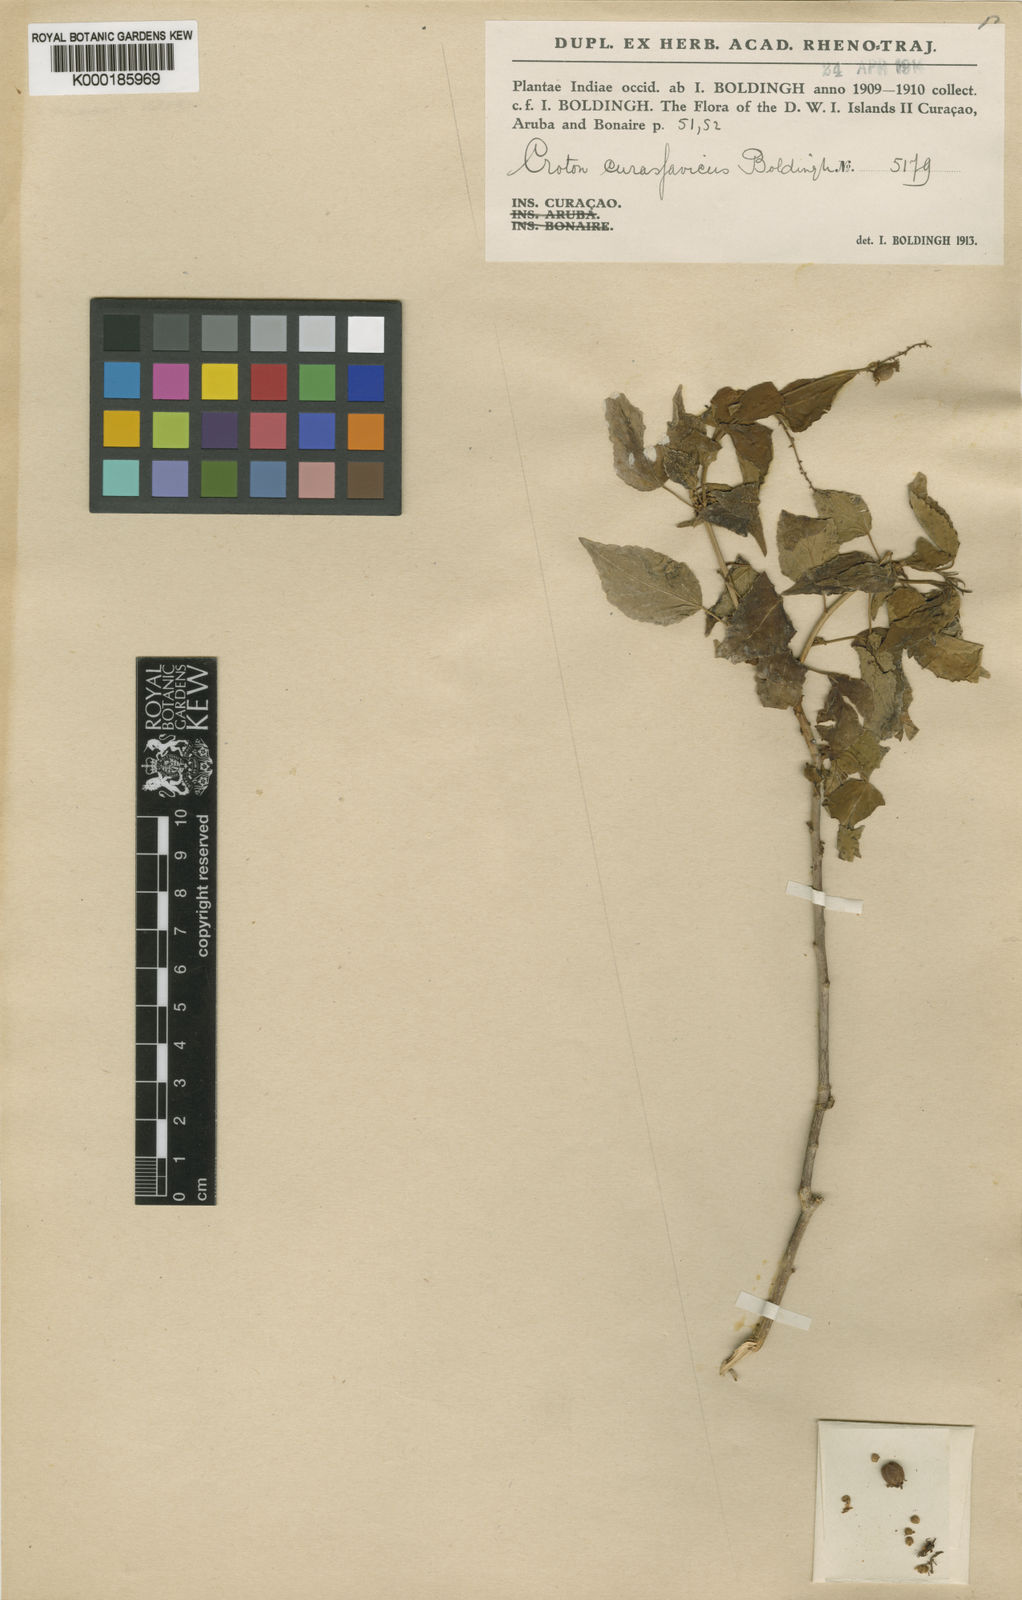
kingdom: Plantae
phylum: Tracheophyta
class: Magnoliopsida
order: Malpighiales
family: Euphorbiaceae
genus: Croton
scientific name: Croton hircinus
